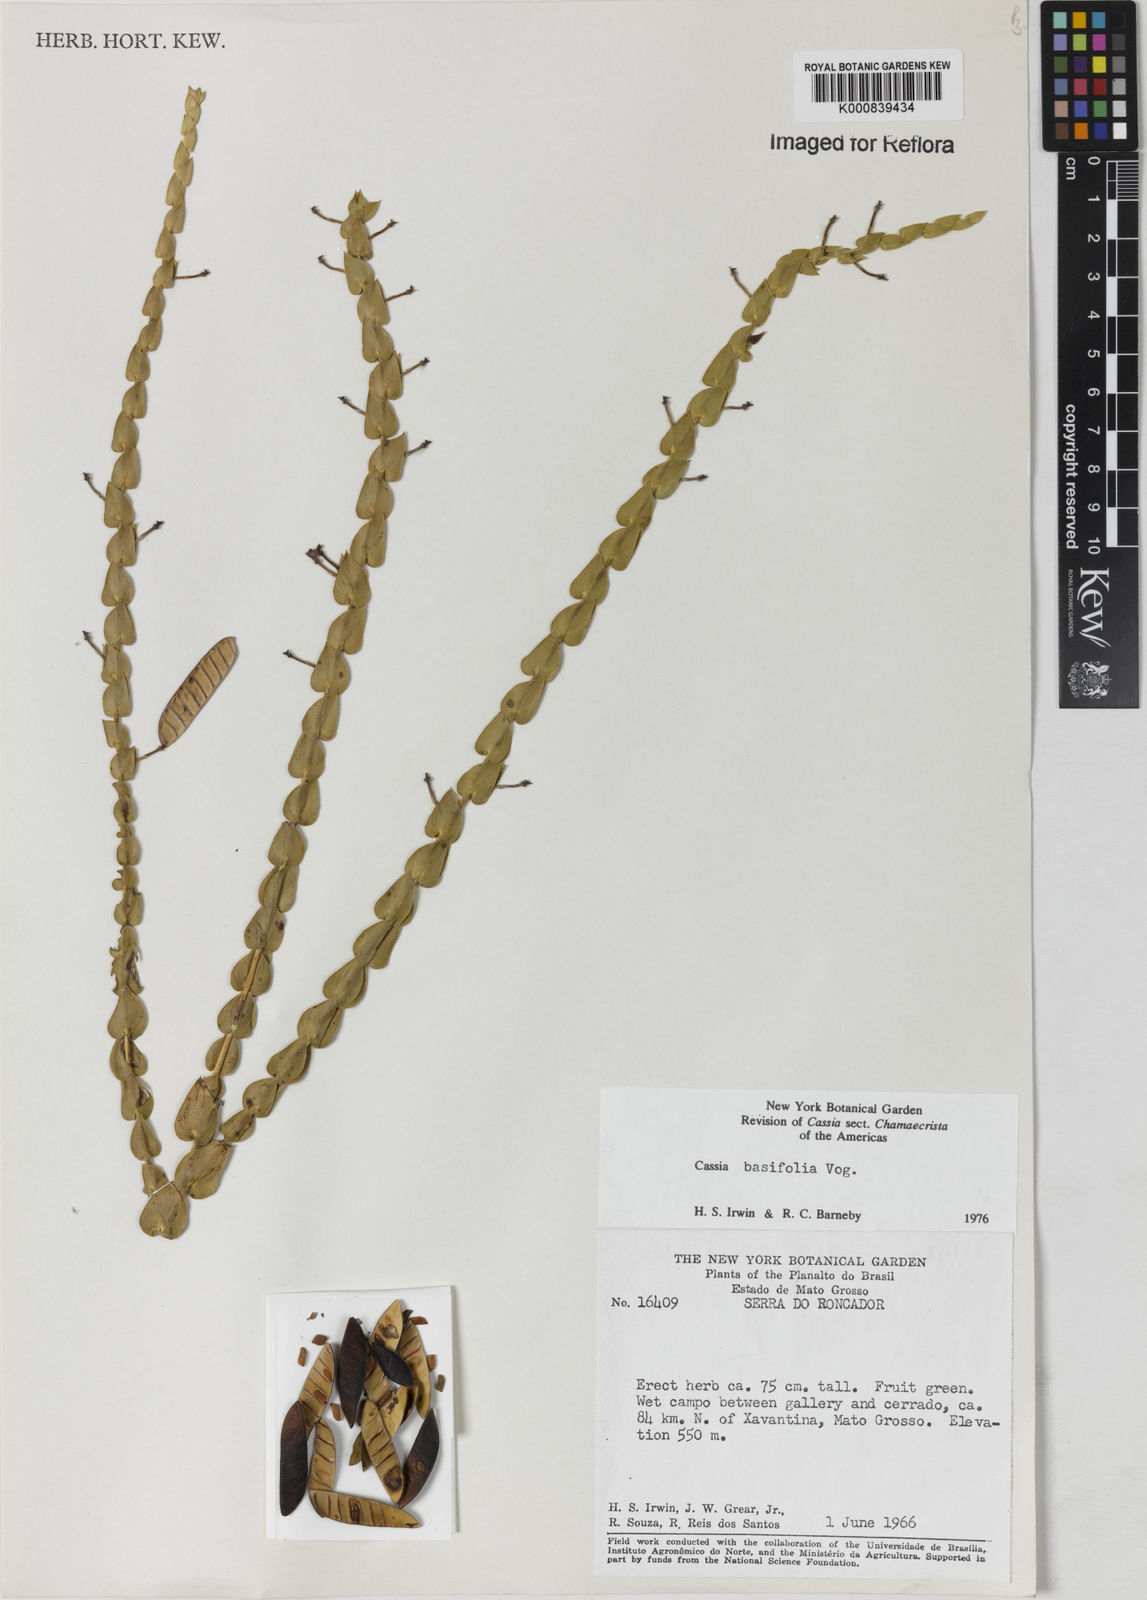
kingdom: Plantae
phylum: Tracheophyta
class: Magnoliopsida
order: Fabales
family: Fabaceae
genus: Chamaecrista
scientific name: Chamaecrista basifolia
